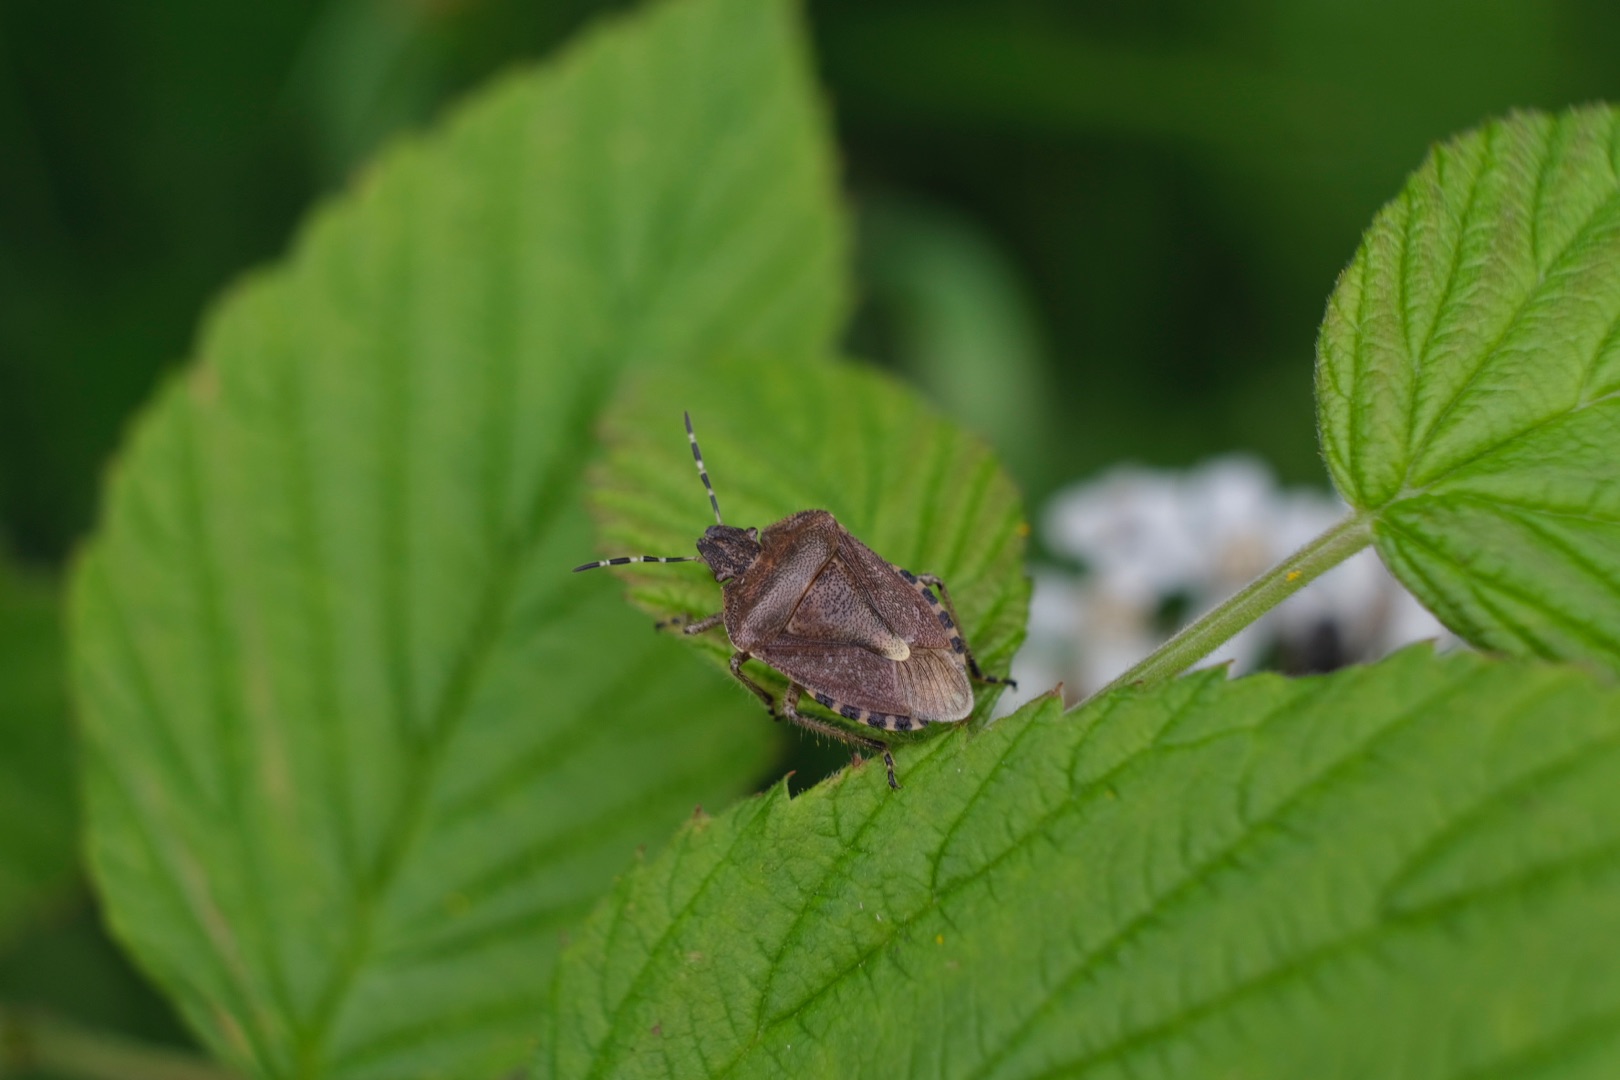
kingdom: Animalia
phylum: Arthropoda
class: Insecta
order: Hemiptera
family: Pentatomidae
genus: Dolycoris
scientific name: Dolycoris baccarum
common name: Almindelig bærtæge
